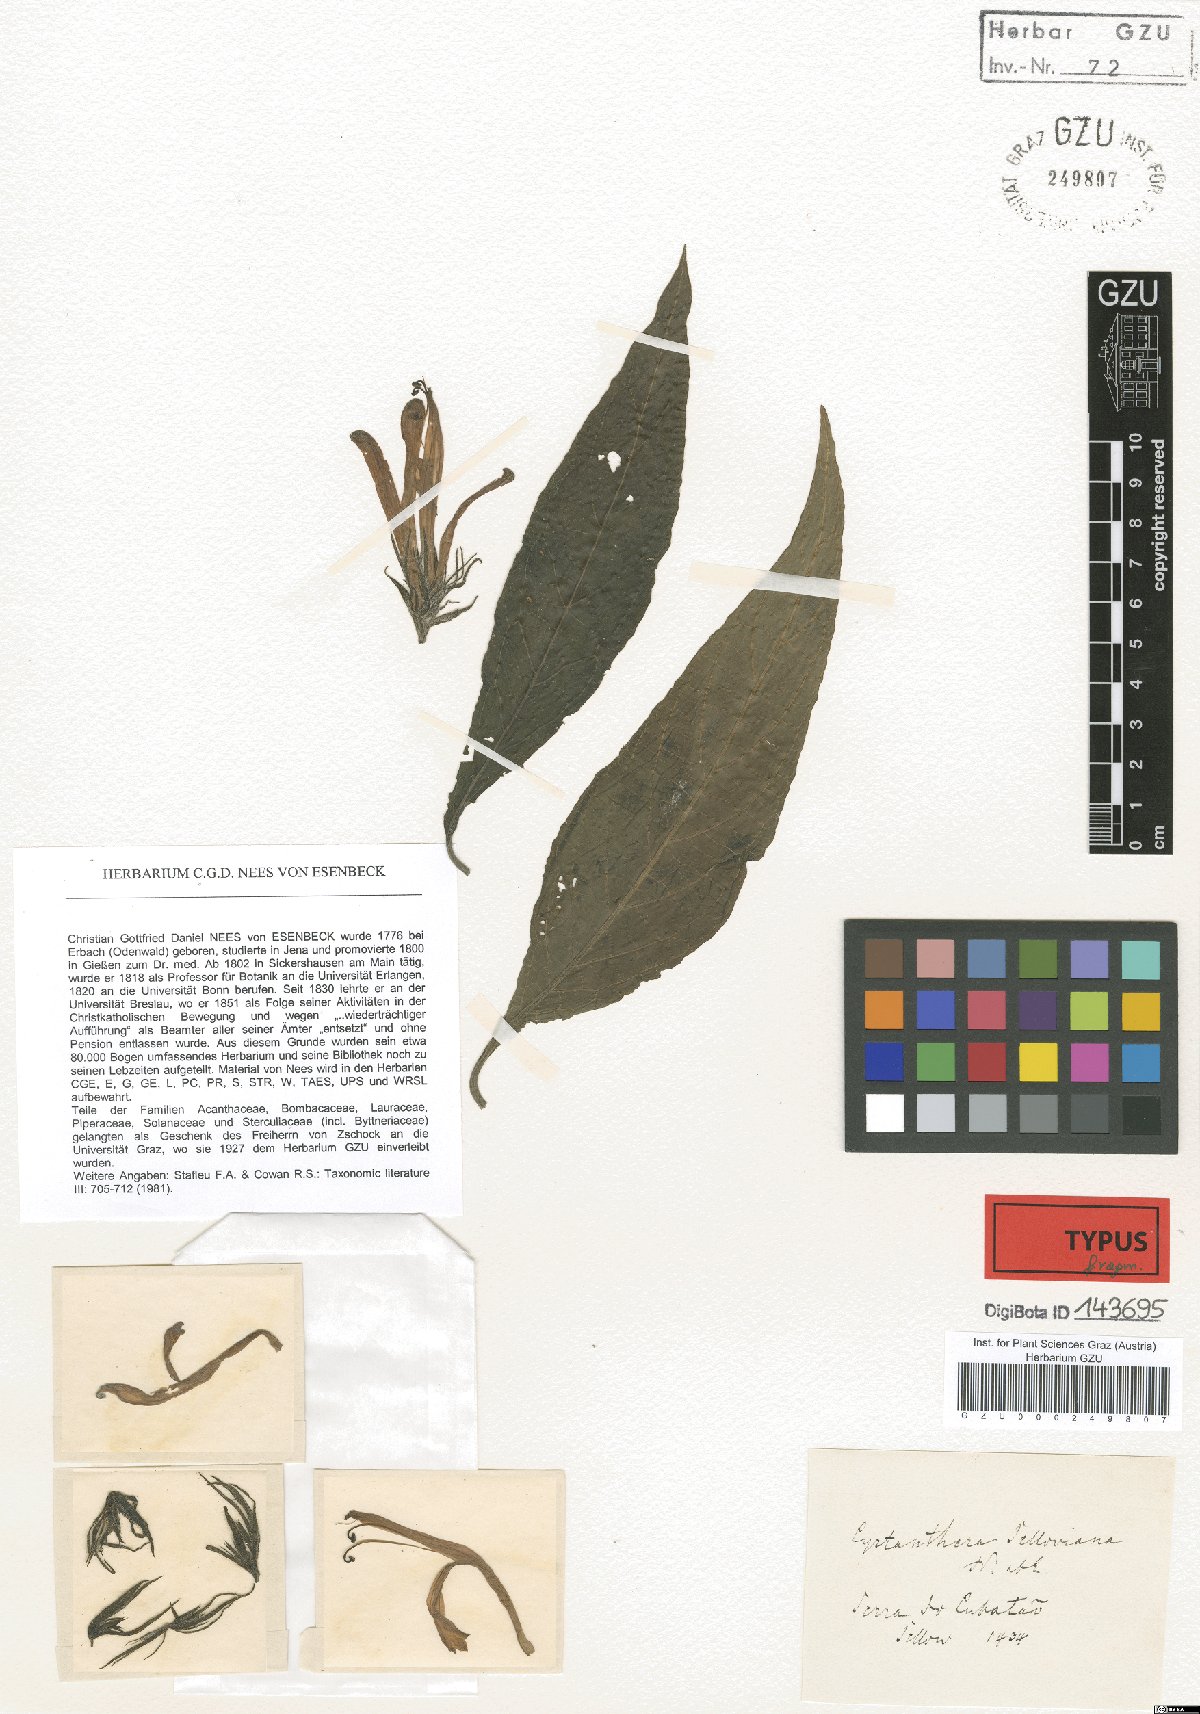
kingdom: Plantae
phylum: Tracheophyta
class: Magnoliopsida
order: Lamiales
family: Acanthaceae
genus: Justicia
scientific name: Justicia Cyrtanthera selloviana
